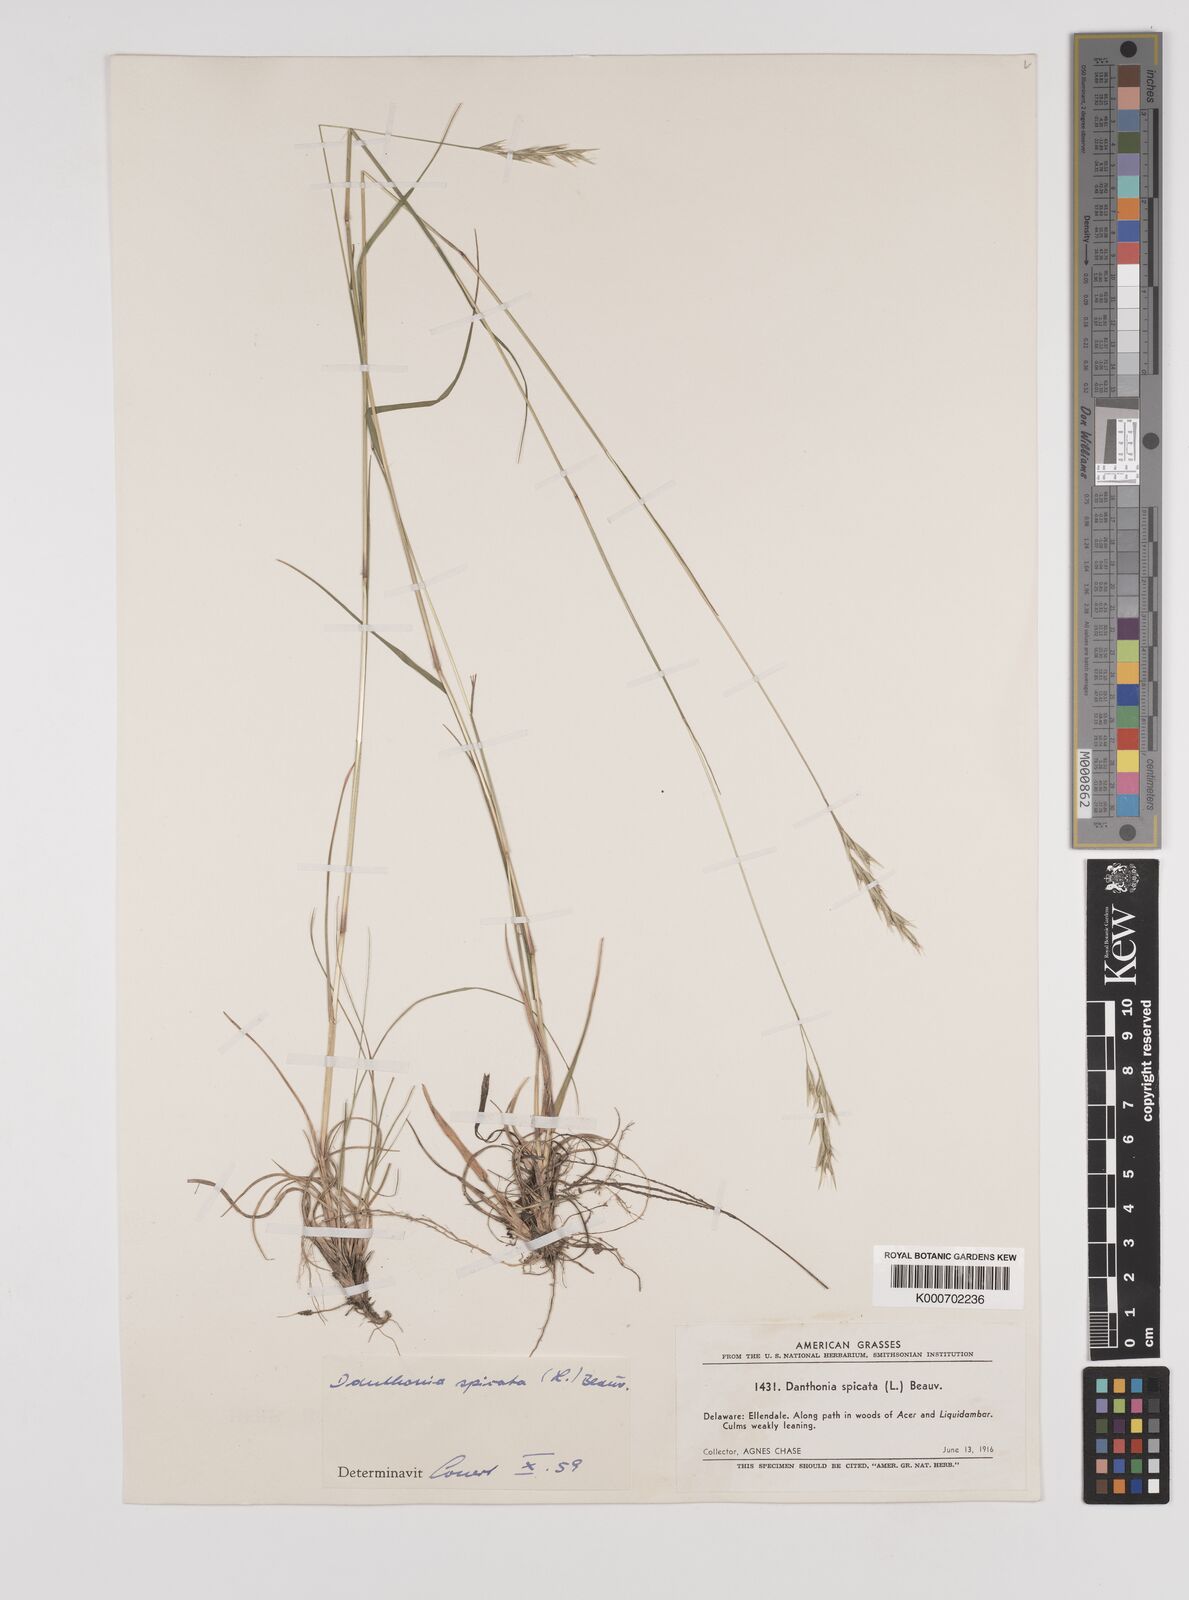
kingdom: Plantae
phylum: Tracheophyta
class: Liliopsida
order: Poales
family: Poaceae
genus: Danthonia
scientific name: Danthonia spicata
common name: Common wild oatgrass
